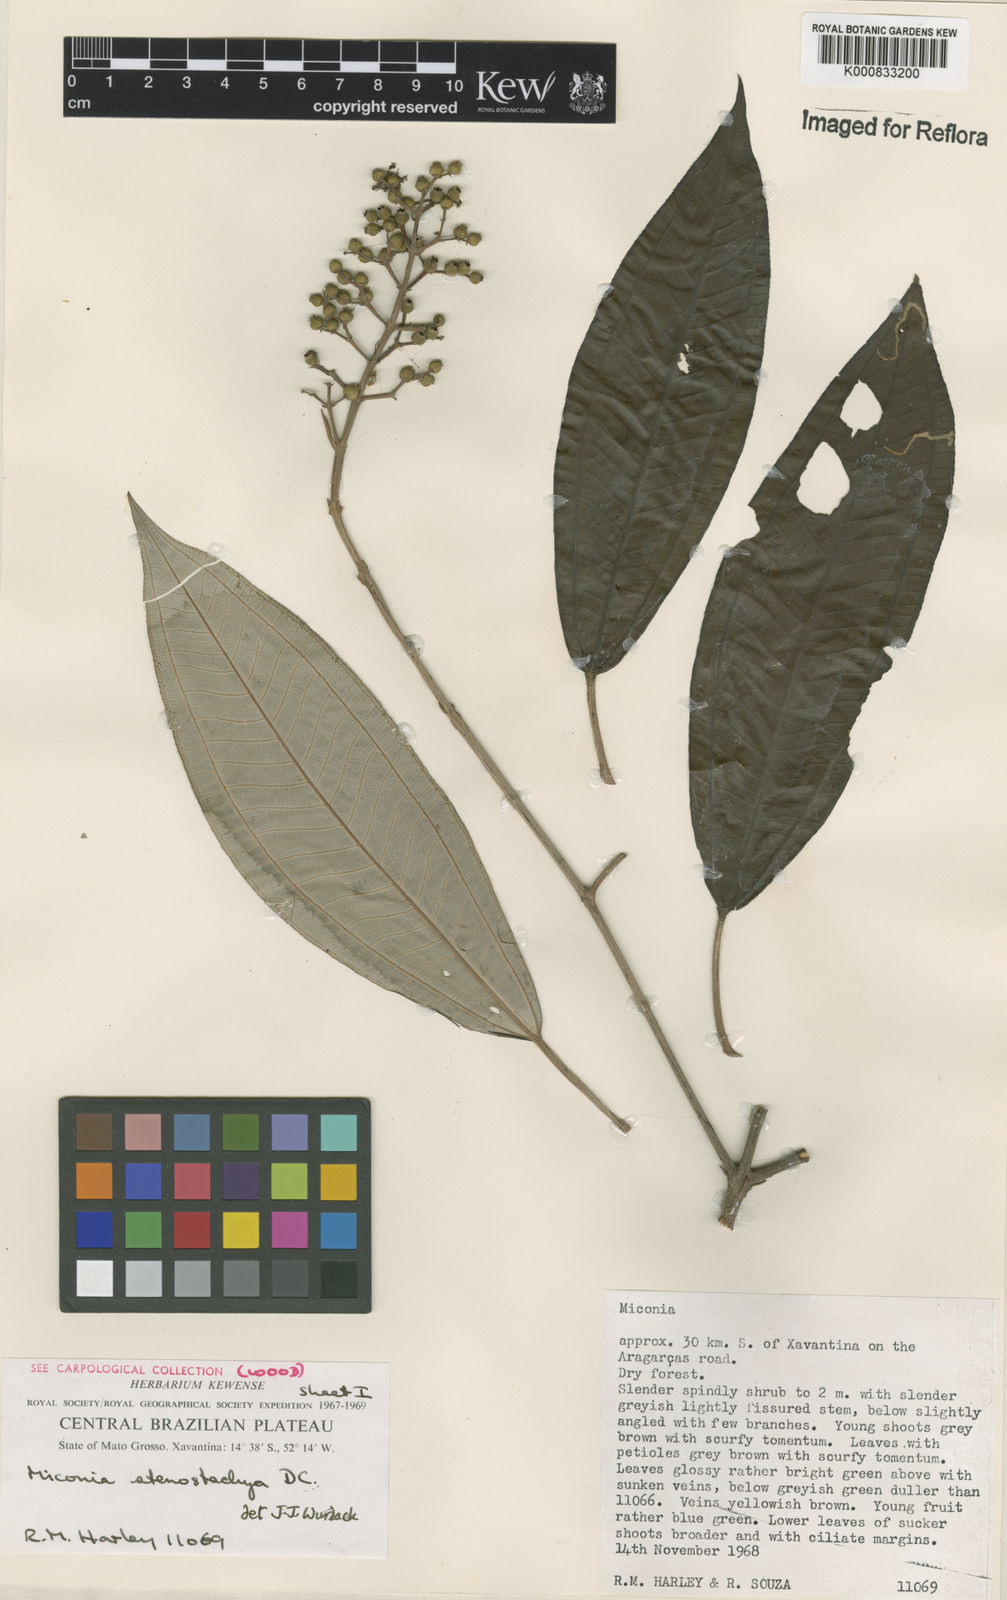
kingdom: Plantae
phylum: Tracheophyta
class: Magnoliopsida
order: Myrtales
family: Melastomataceae
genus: Miconia
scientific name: Miconia stenostachya
